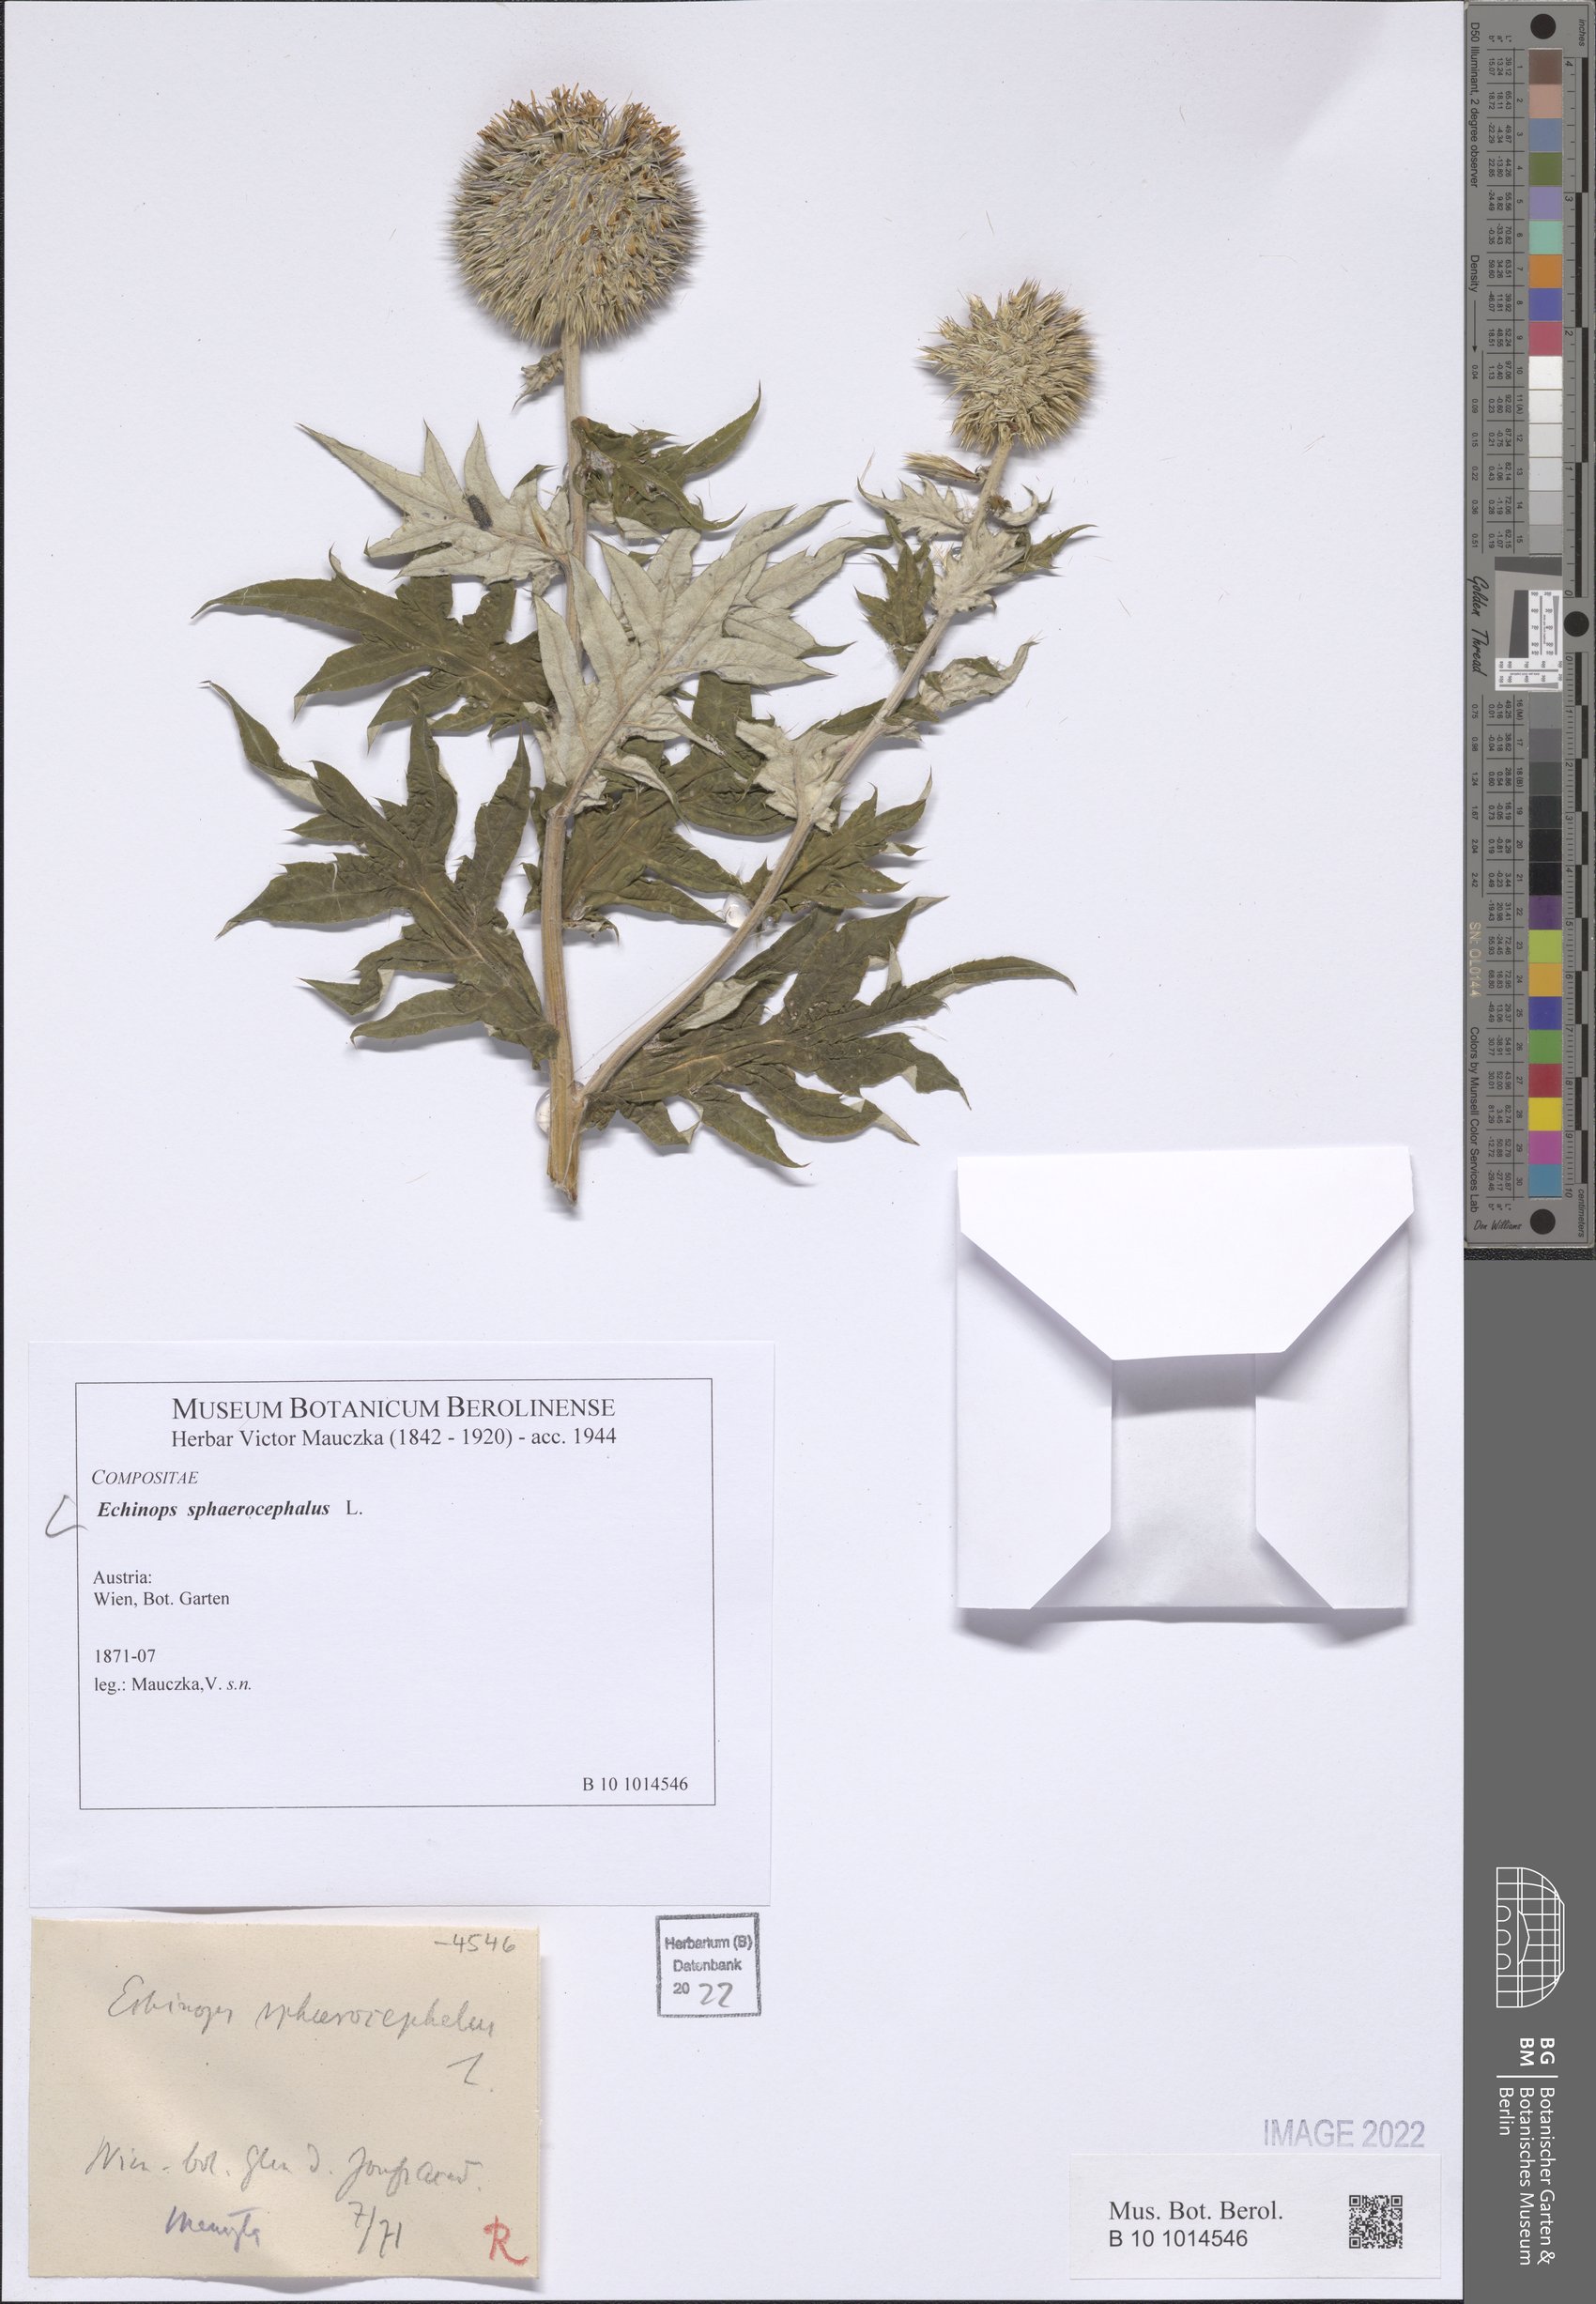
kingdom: Plantae
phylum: Tracheophyta
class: Magnoliopsida
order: Asterales
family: Asteraceae
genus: Echinops
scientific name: Echinops sphaerocephalus
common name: Glandular globe-thistle
